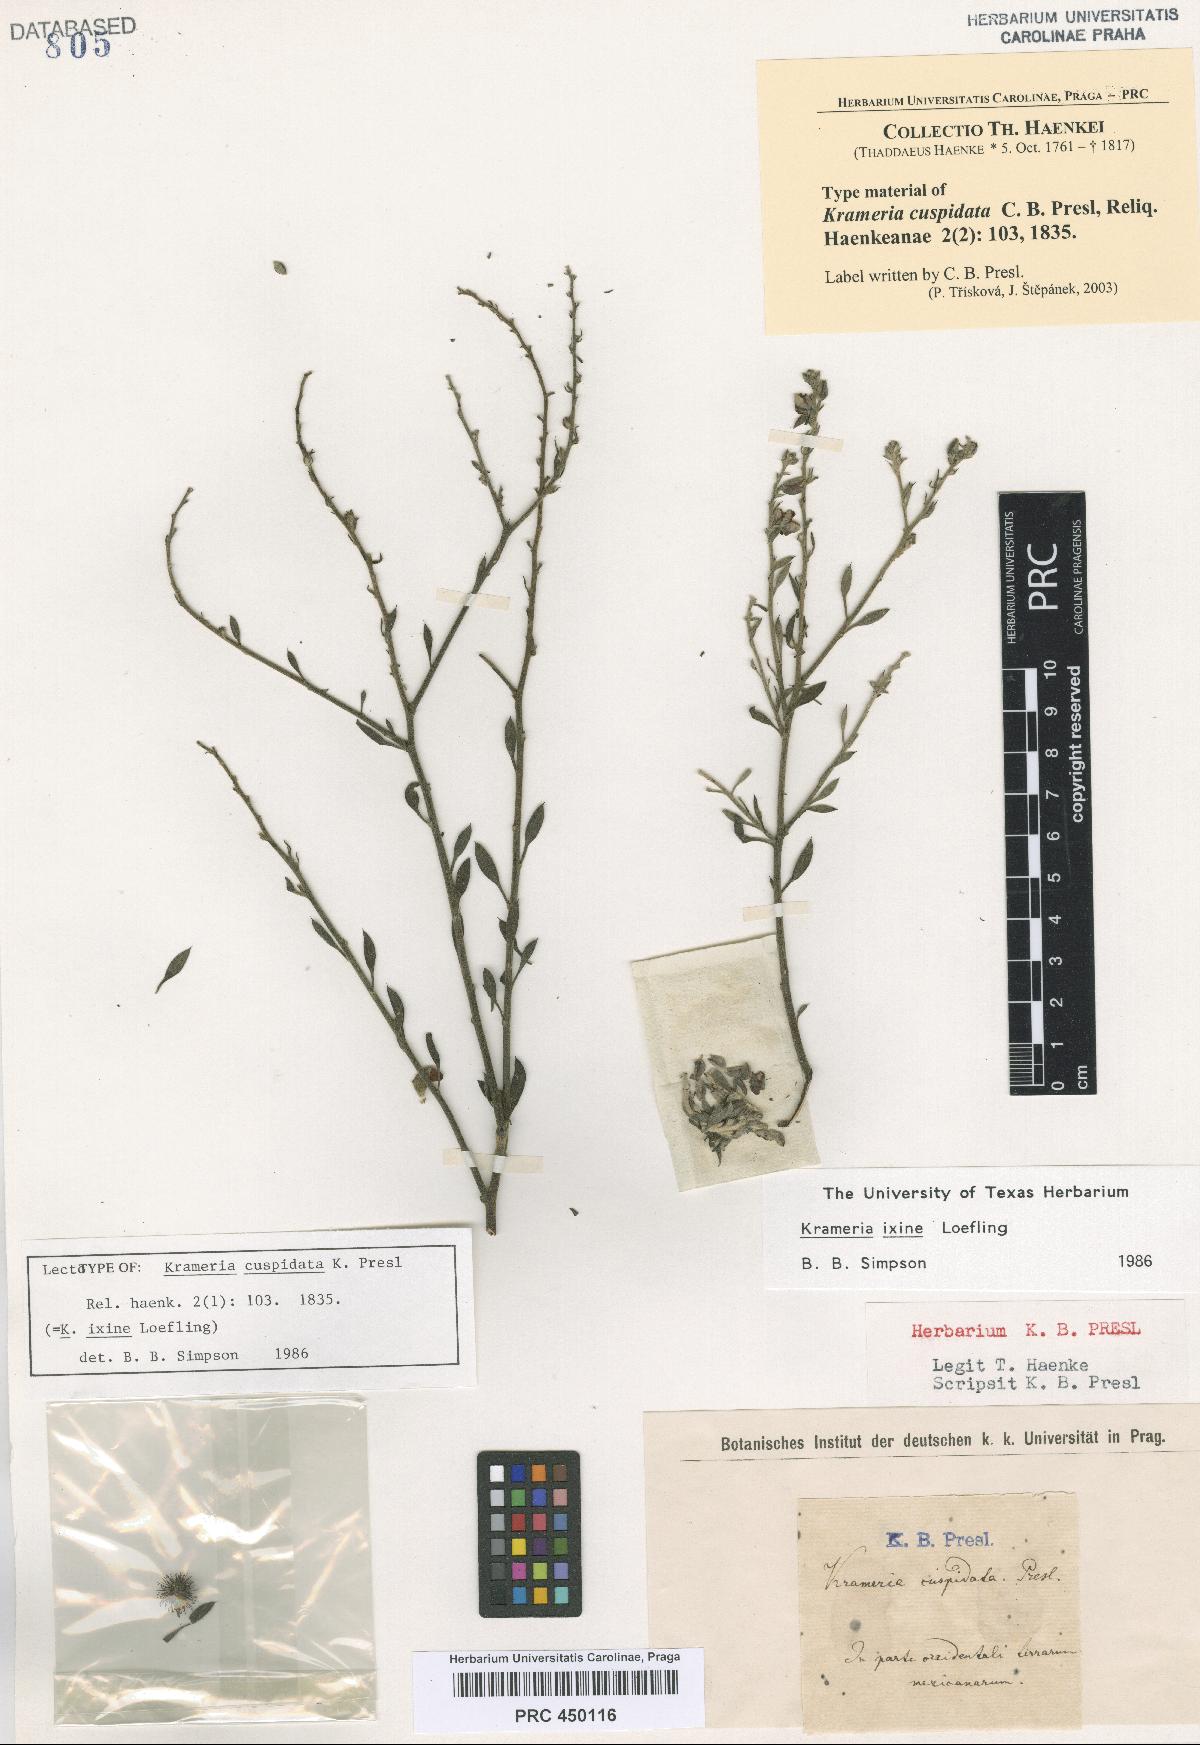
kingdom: Plantae
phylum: Tracheophyta
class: Magnoliopsida
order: Zygophyllales
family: Krameriaceae
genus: Krameria
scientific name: Krameria ixine
